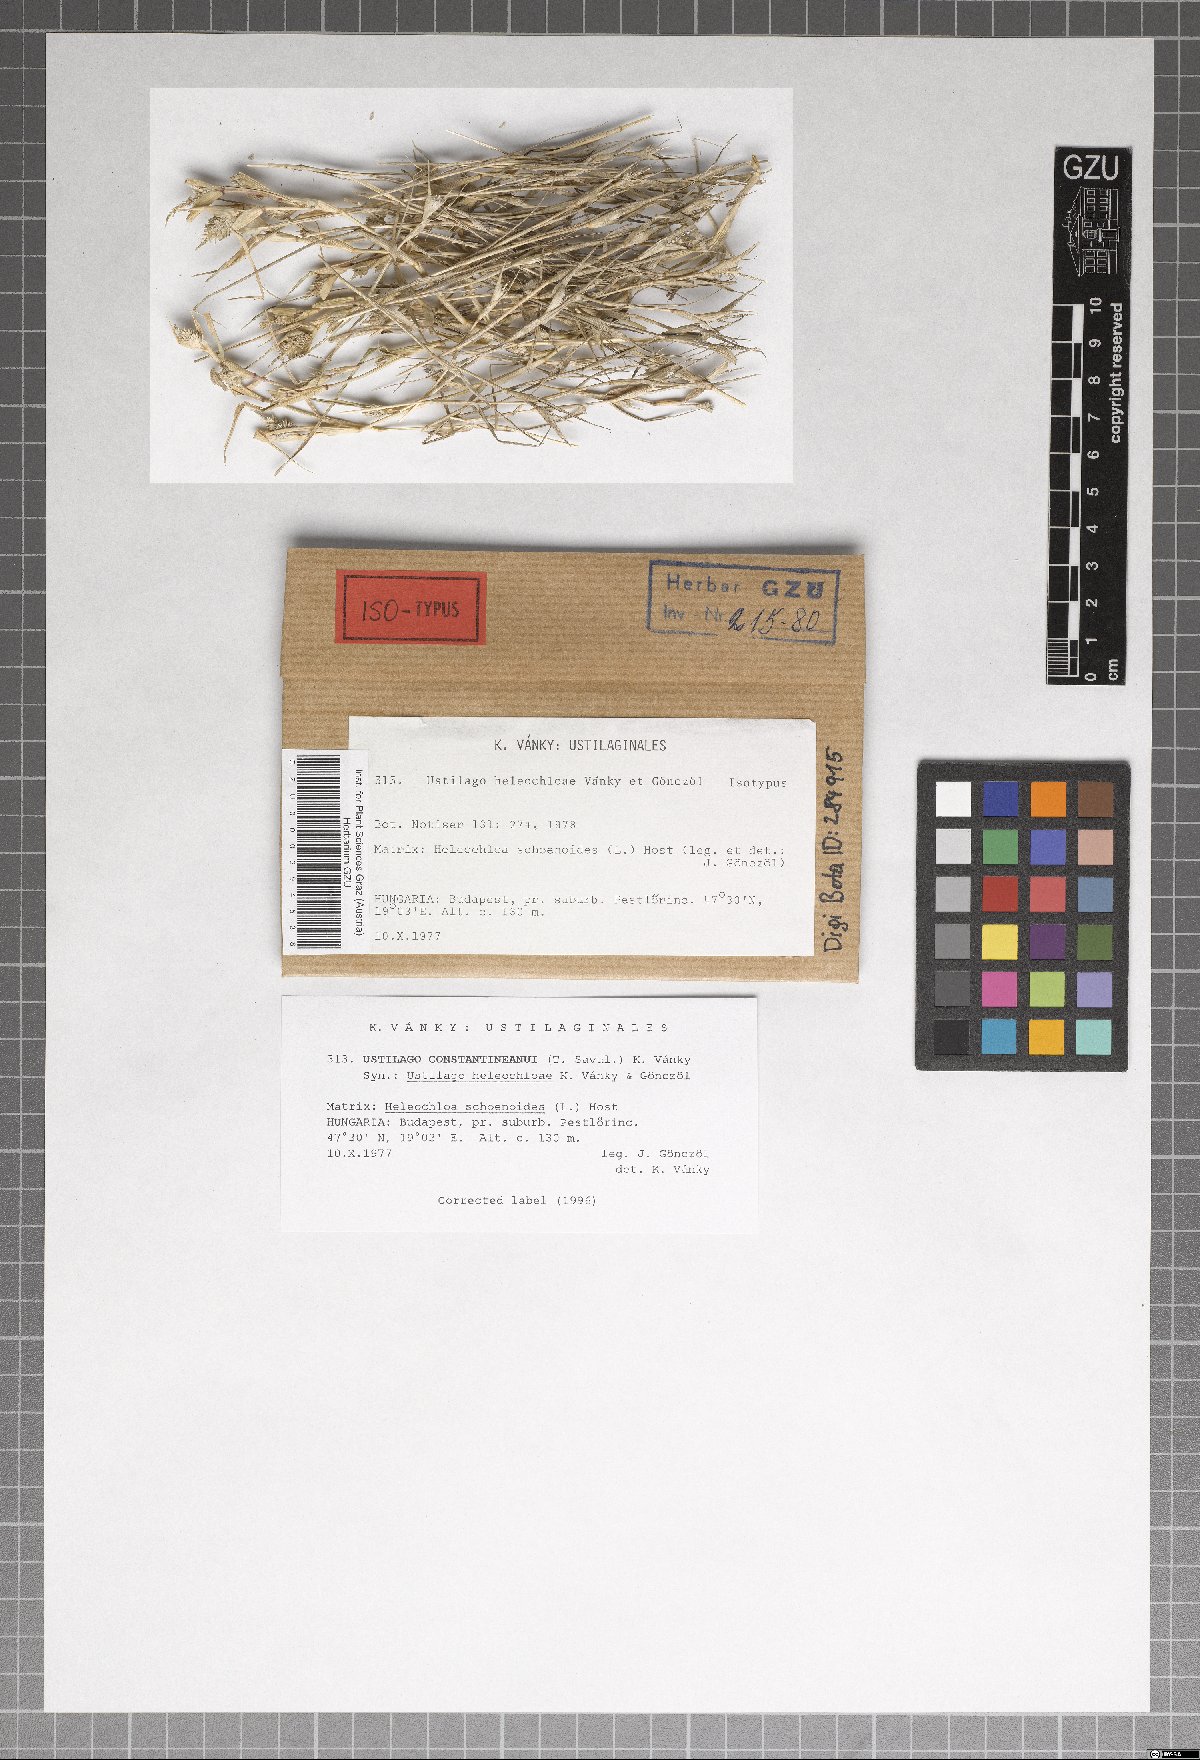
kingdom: Fungi
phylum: Basidiomycota
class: Ustilaginomycetes
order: Ustilaginales
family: Ustilaginaceae
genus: Ustilago
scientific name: Ustilago heleochloae
